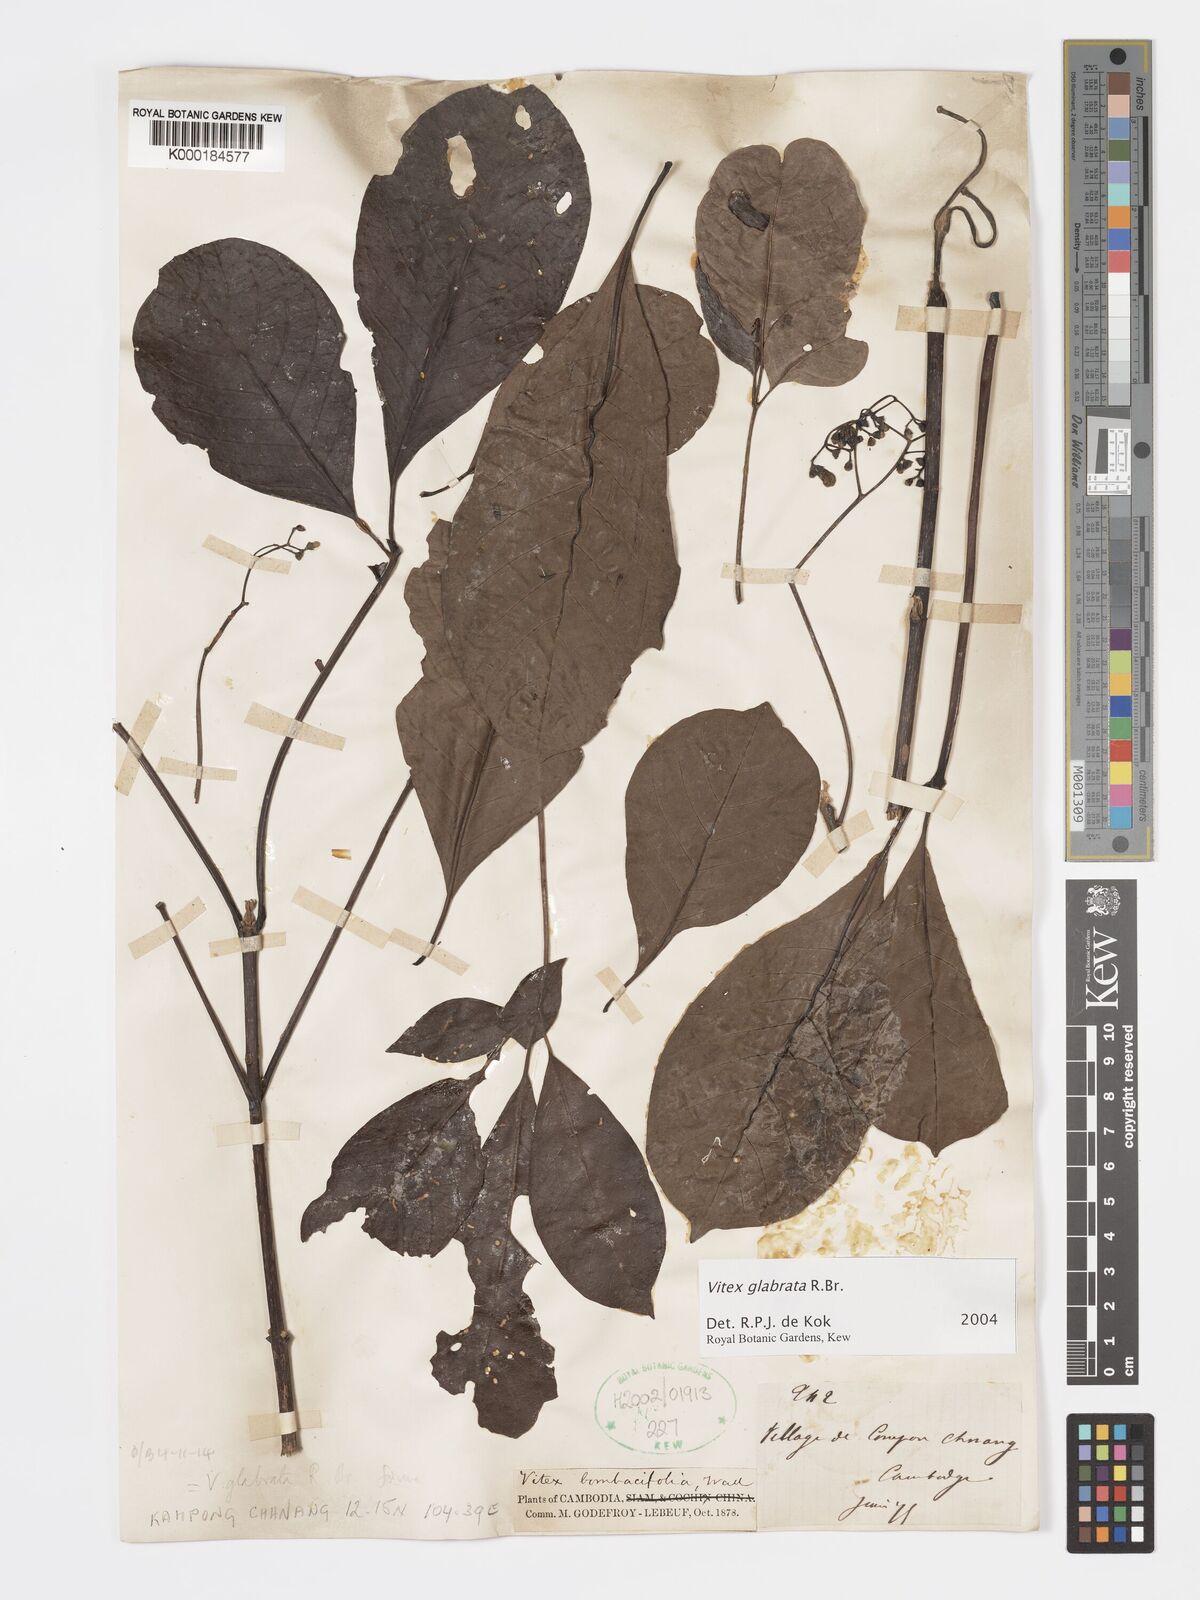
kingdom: Plantae
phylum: Tracheophyta
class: Magnoliopsida
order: Lamiales
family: Lamiaceae
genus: Vitex
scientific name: Vitex glabrata
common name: Smooth chastetree
